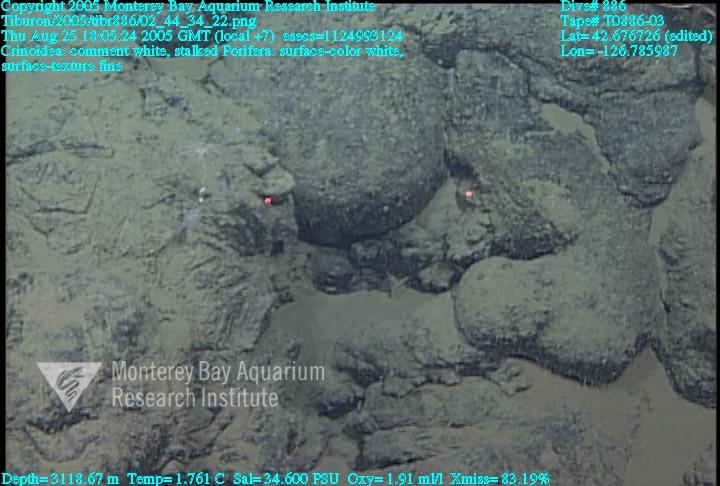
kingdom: Animalia
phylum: Porifera
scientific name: Porifera
